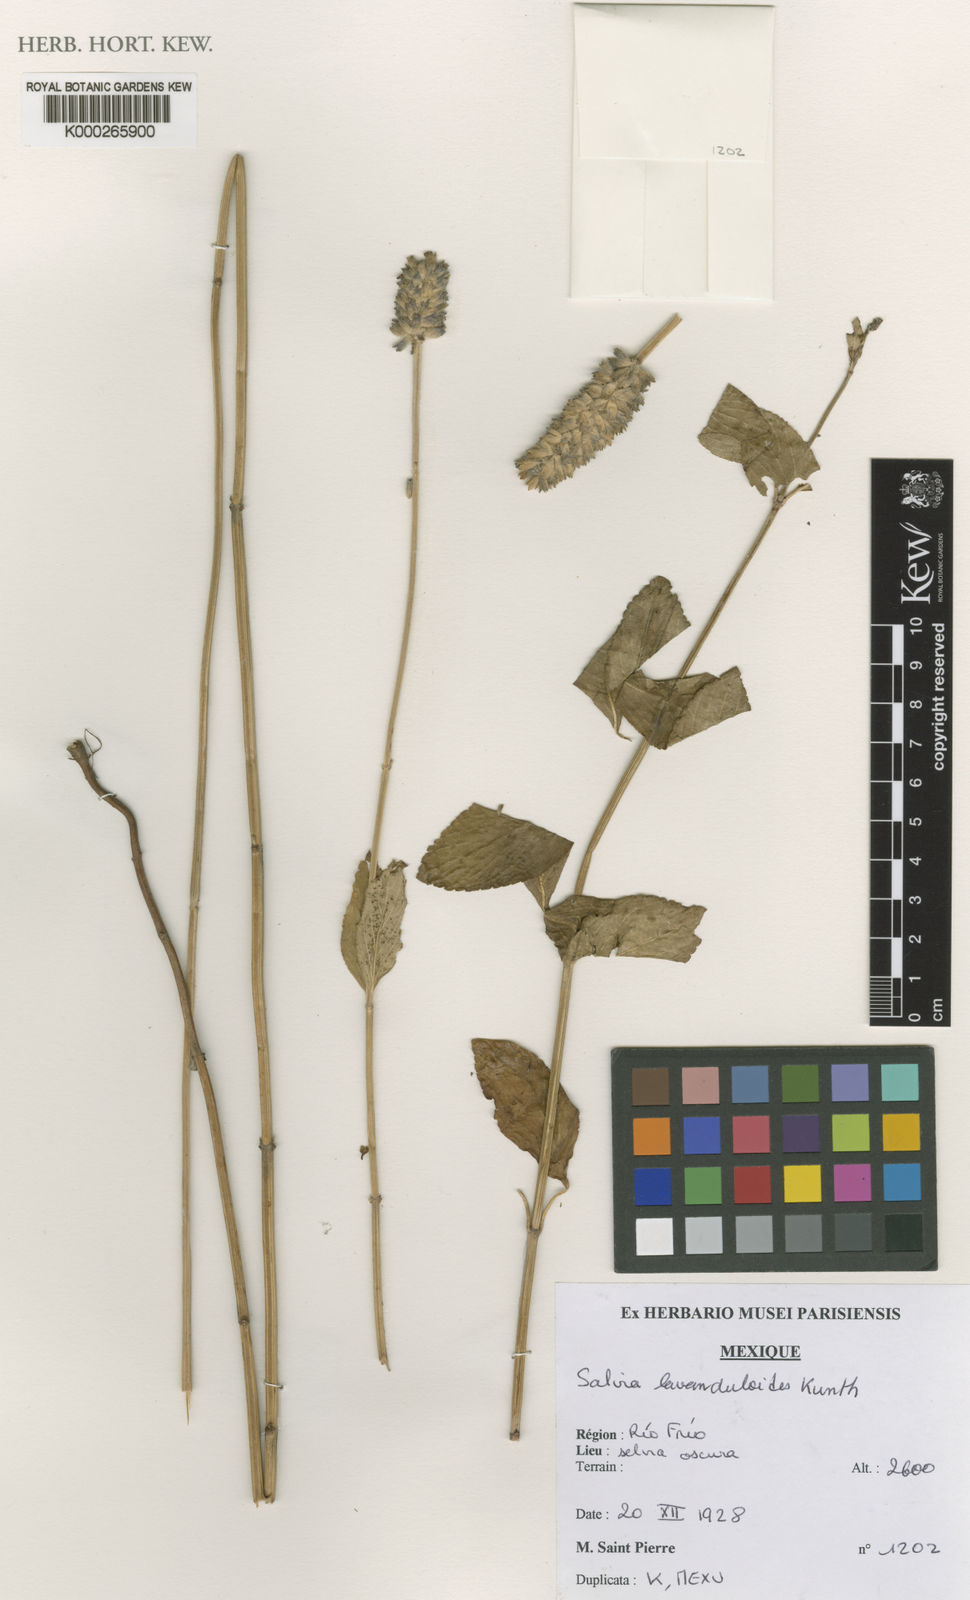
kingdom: Plantae
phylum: Tracheophyta
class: Magnoliopsida
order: Lamiales
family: Lamiaceae
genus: Salvia
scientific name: Salvia stachyoides
